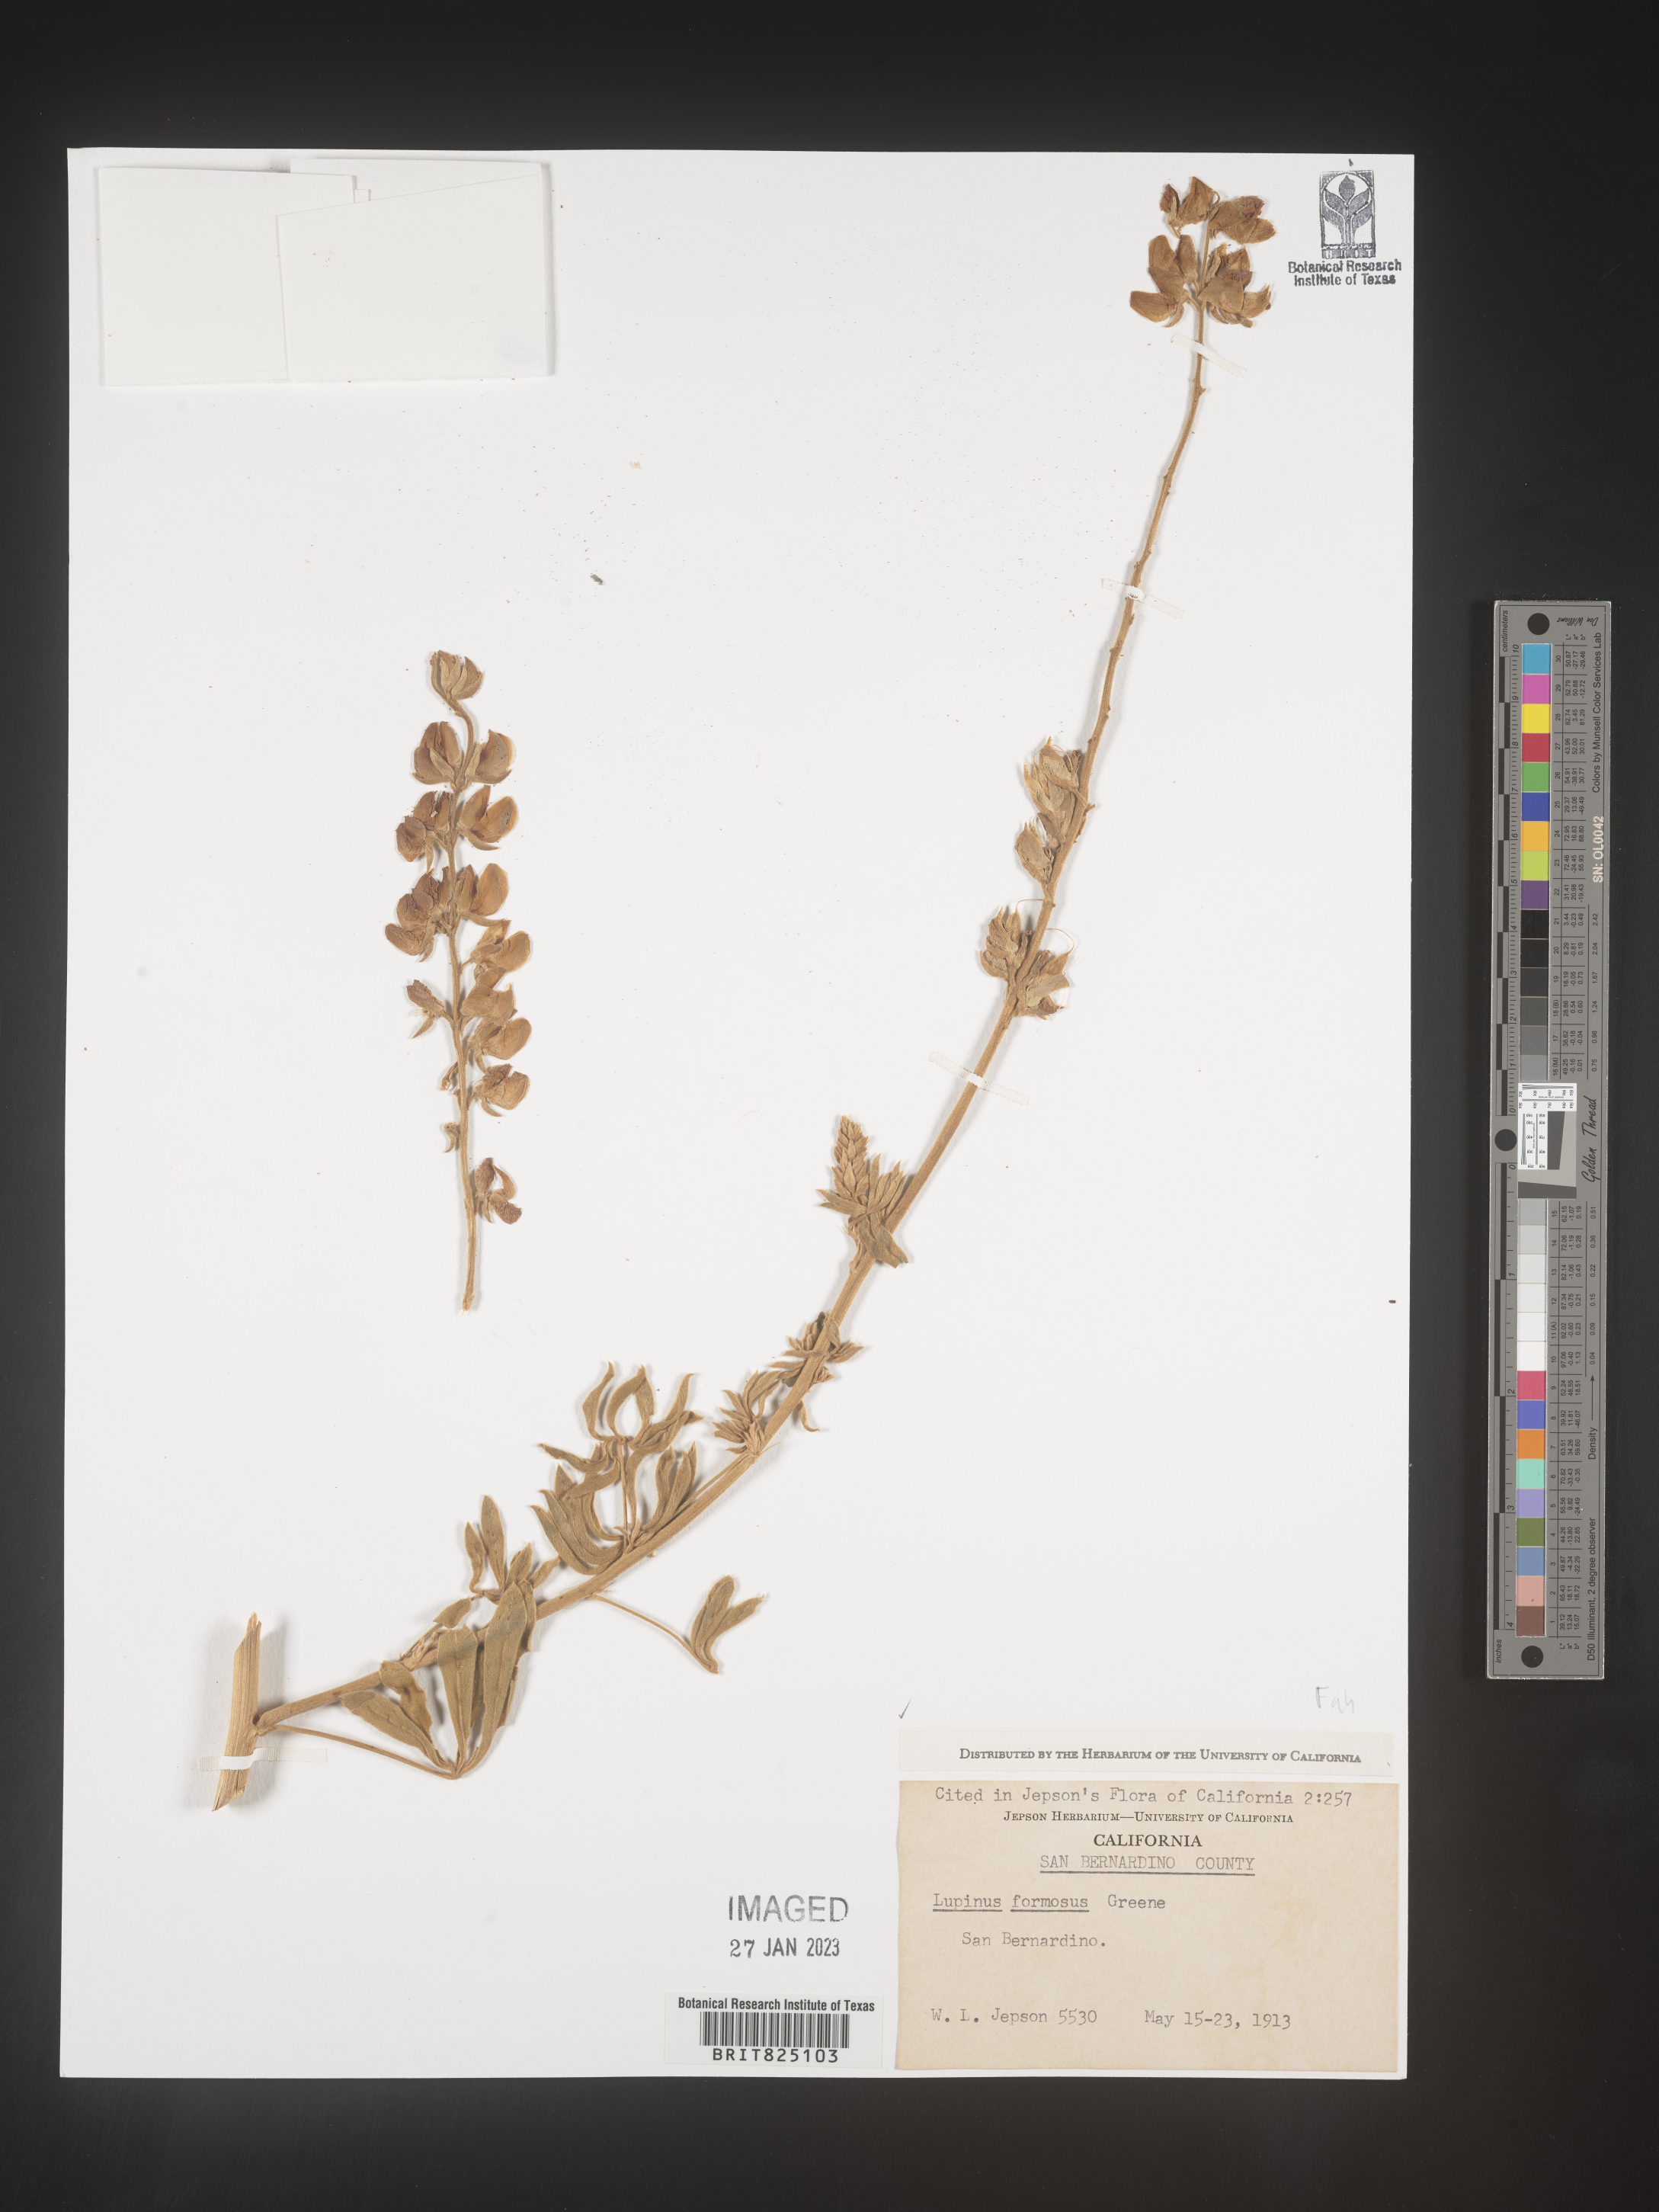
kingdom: Plantae
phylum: Tracheophyta
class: Magnoliopsida
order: Fabales
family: Fabaceae
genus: Lupinus
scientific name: Lupinus
